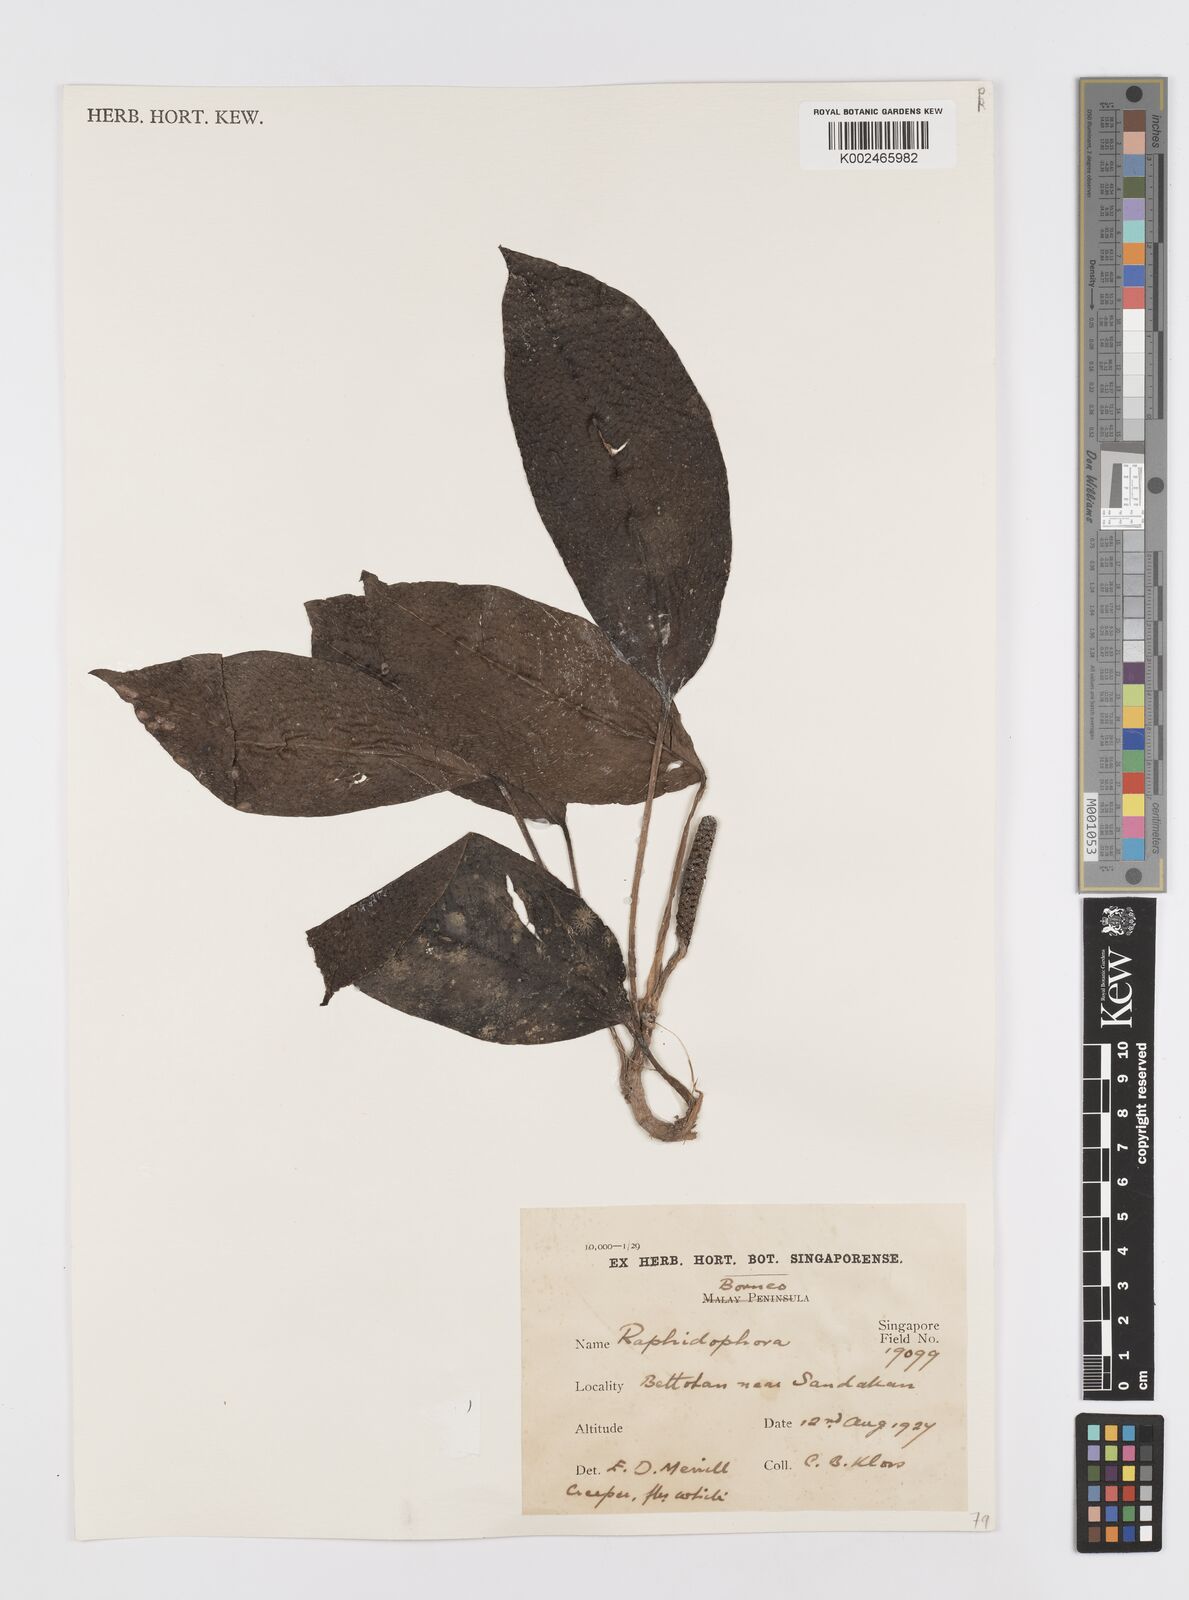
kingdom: Plantae
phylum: Tracheophyta
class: Liliopsida
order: Alismatales
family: Araceae
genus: Rhaphidophora
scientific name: Rhaphidophora puberula
